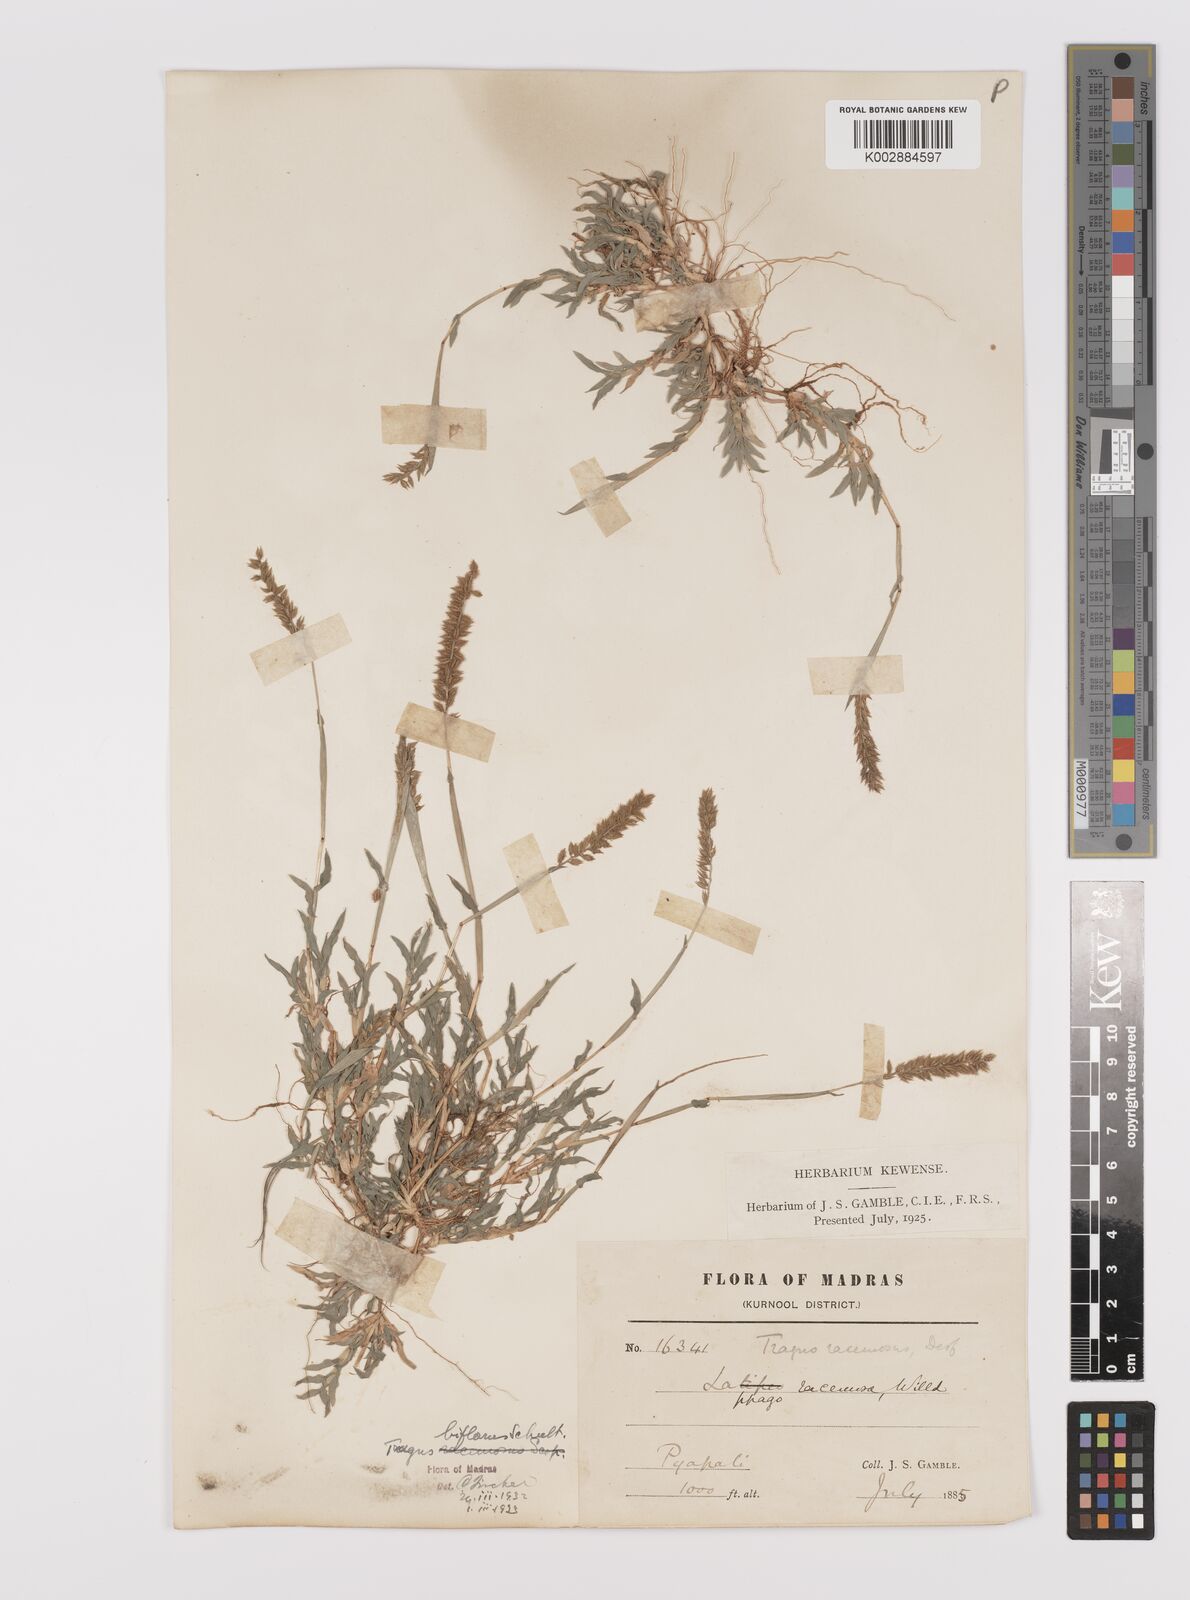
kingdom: Plantae
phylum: Tracheophyta
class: Liliopsida
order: Poales
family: Poaceae
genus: Tragus
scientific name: Tragus mongolorum
